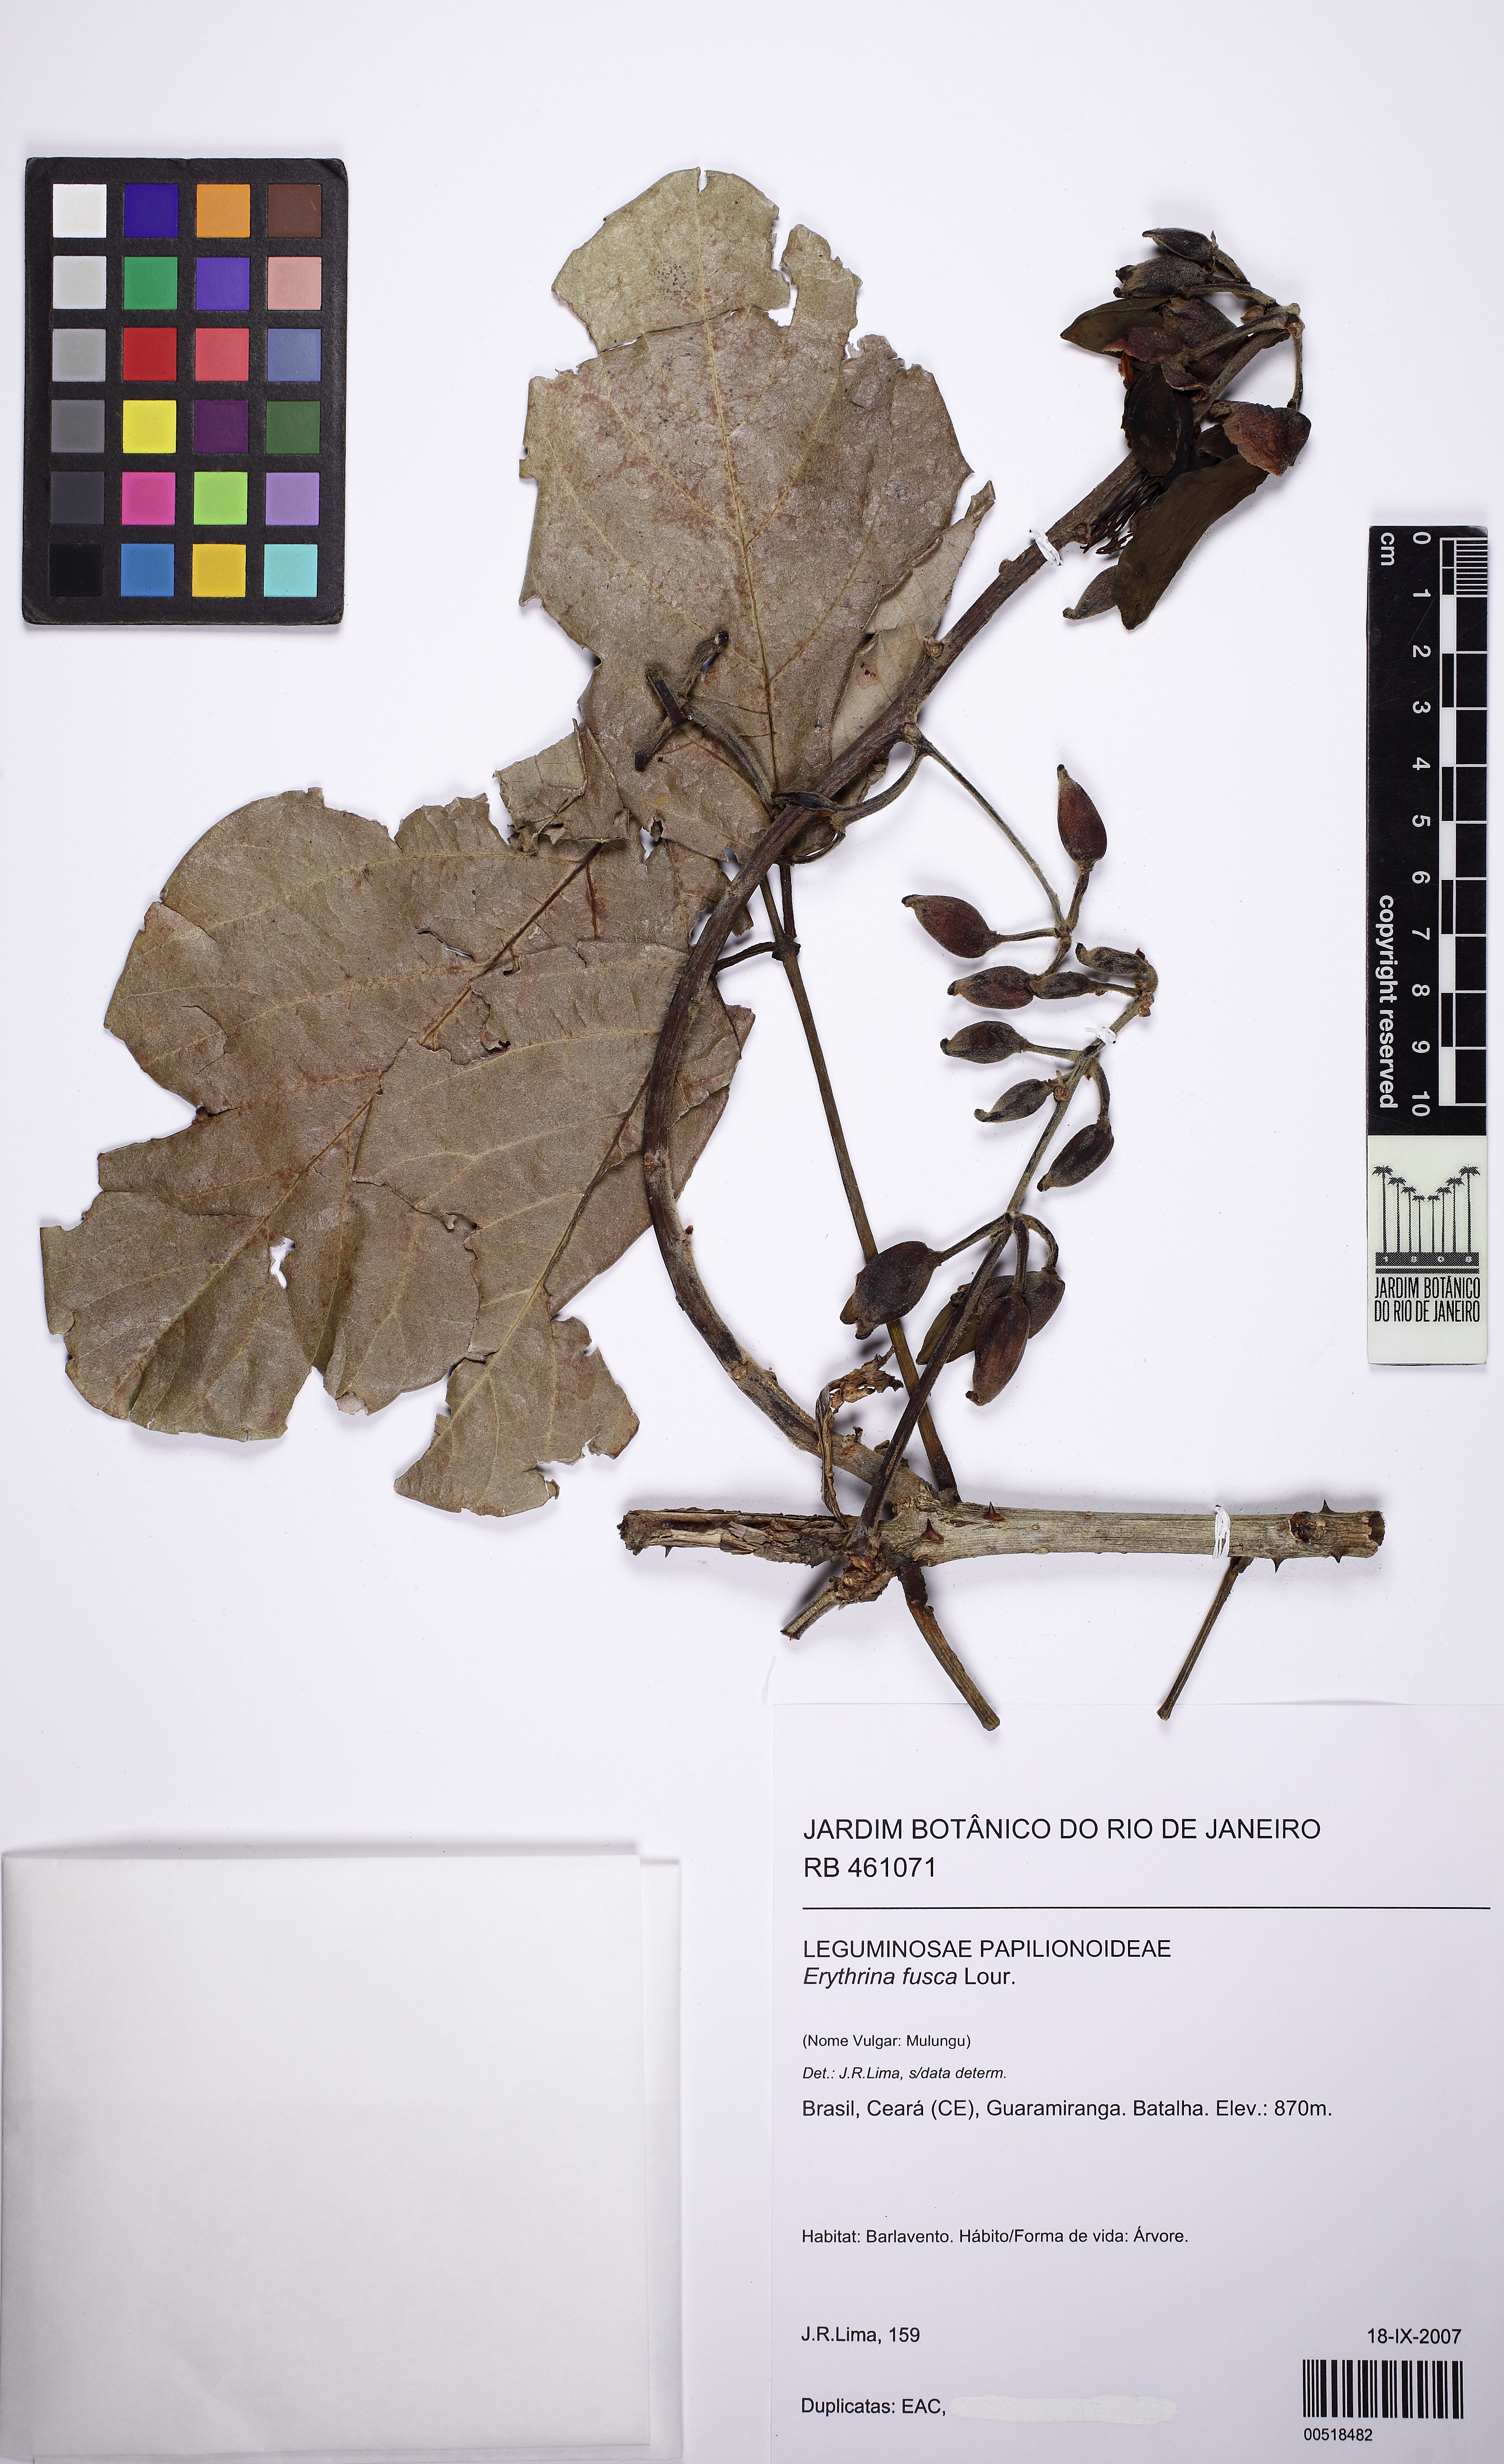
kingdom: Plantae
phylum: Tracheophyta
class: Magnoliopsida
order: Fabales
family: Fabaceae
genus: Erythrina
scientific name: Erythrina fusca
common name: Coral-bean
